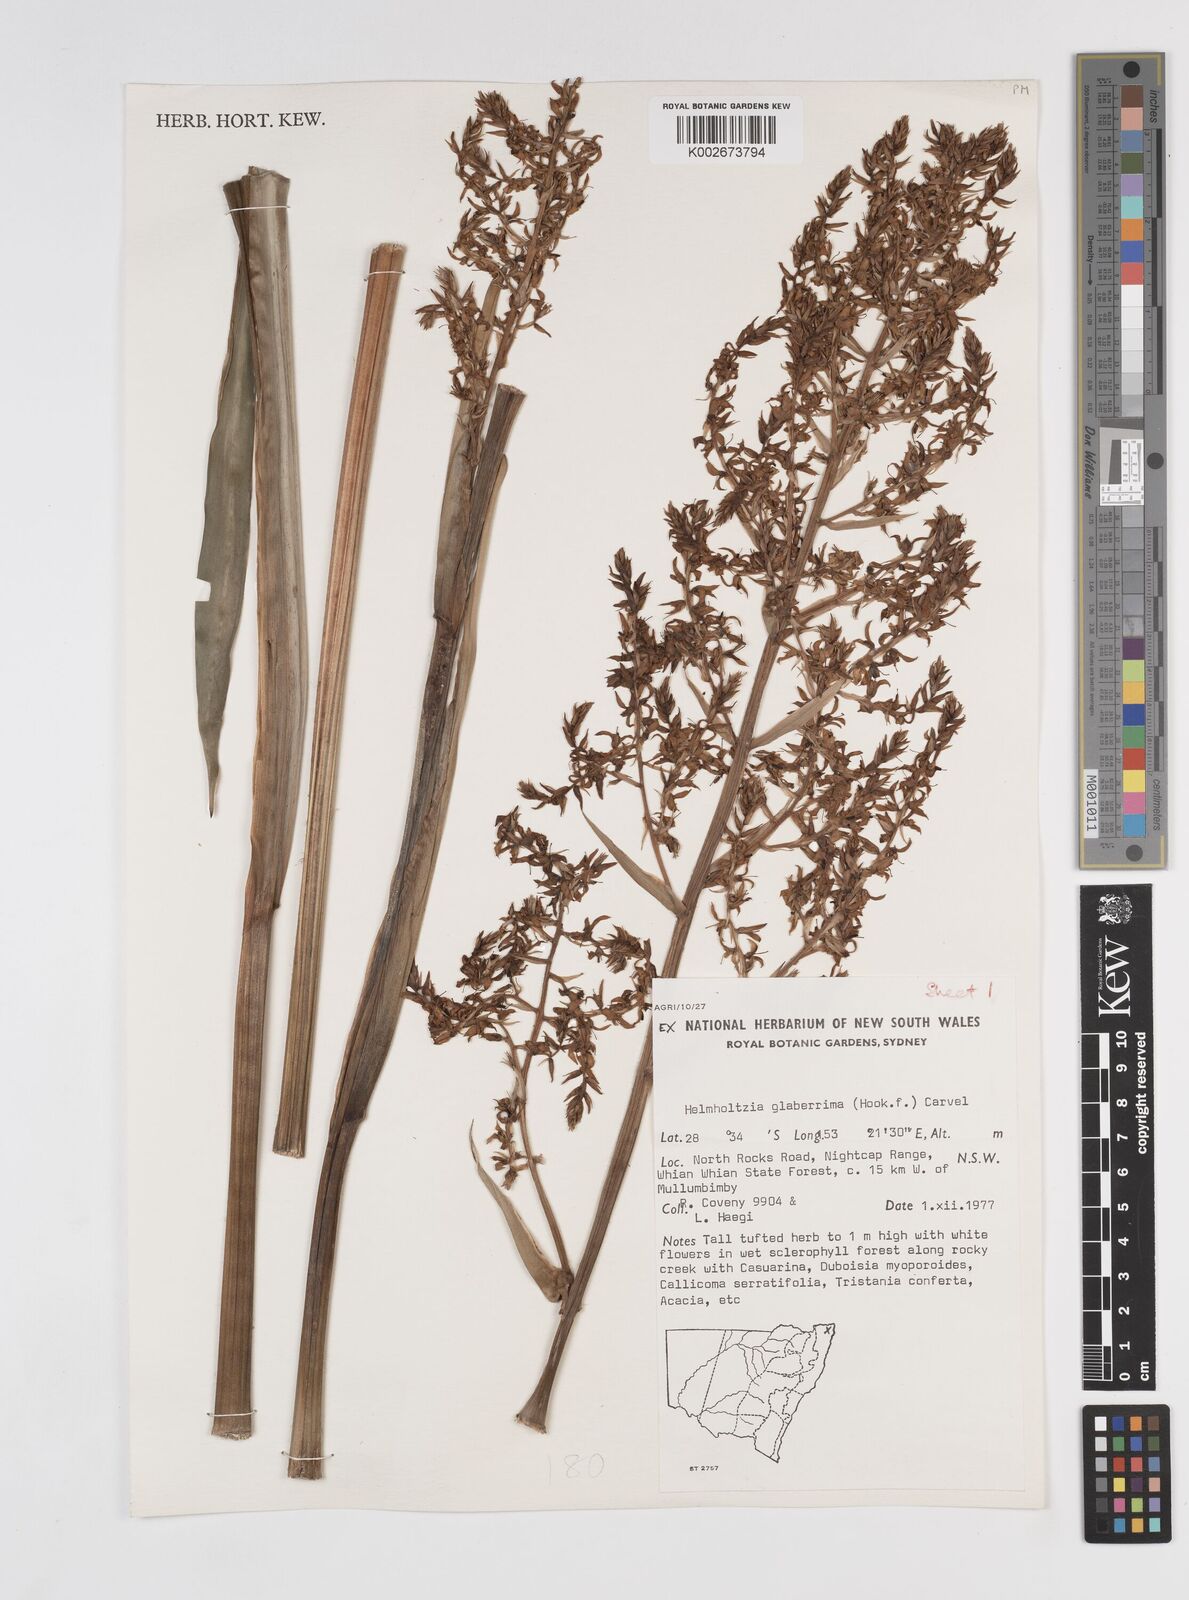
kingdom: Plantae
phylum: Tracheophyta
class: Liliopsida
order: Commelinales
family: Philydraceae
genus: Helmholtzia
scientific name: Helmholtzia glaberrima
